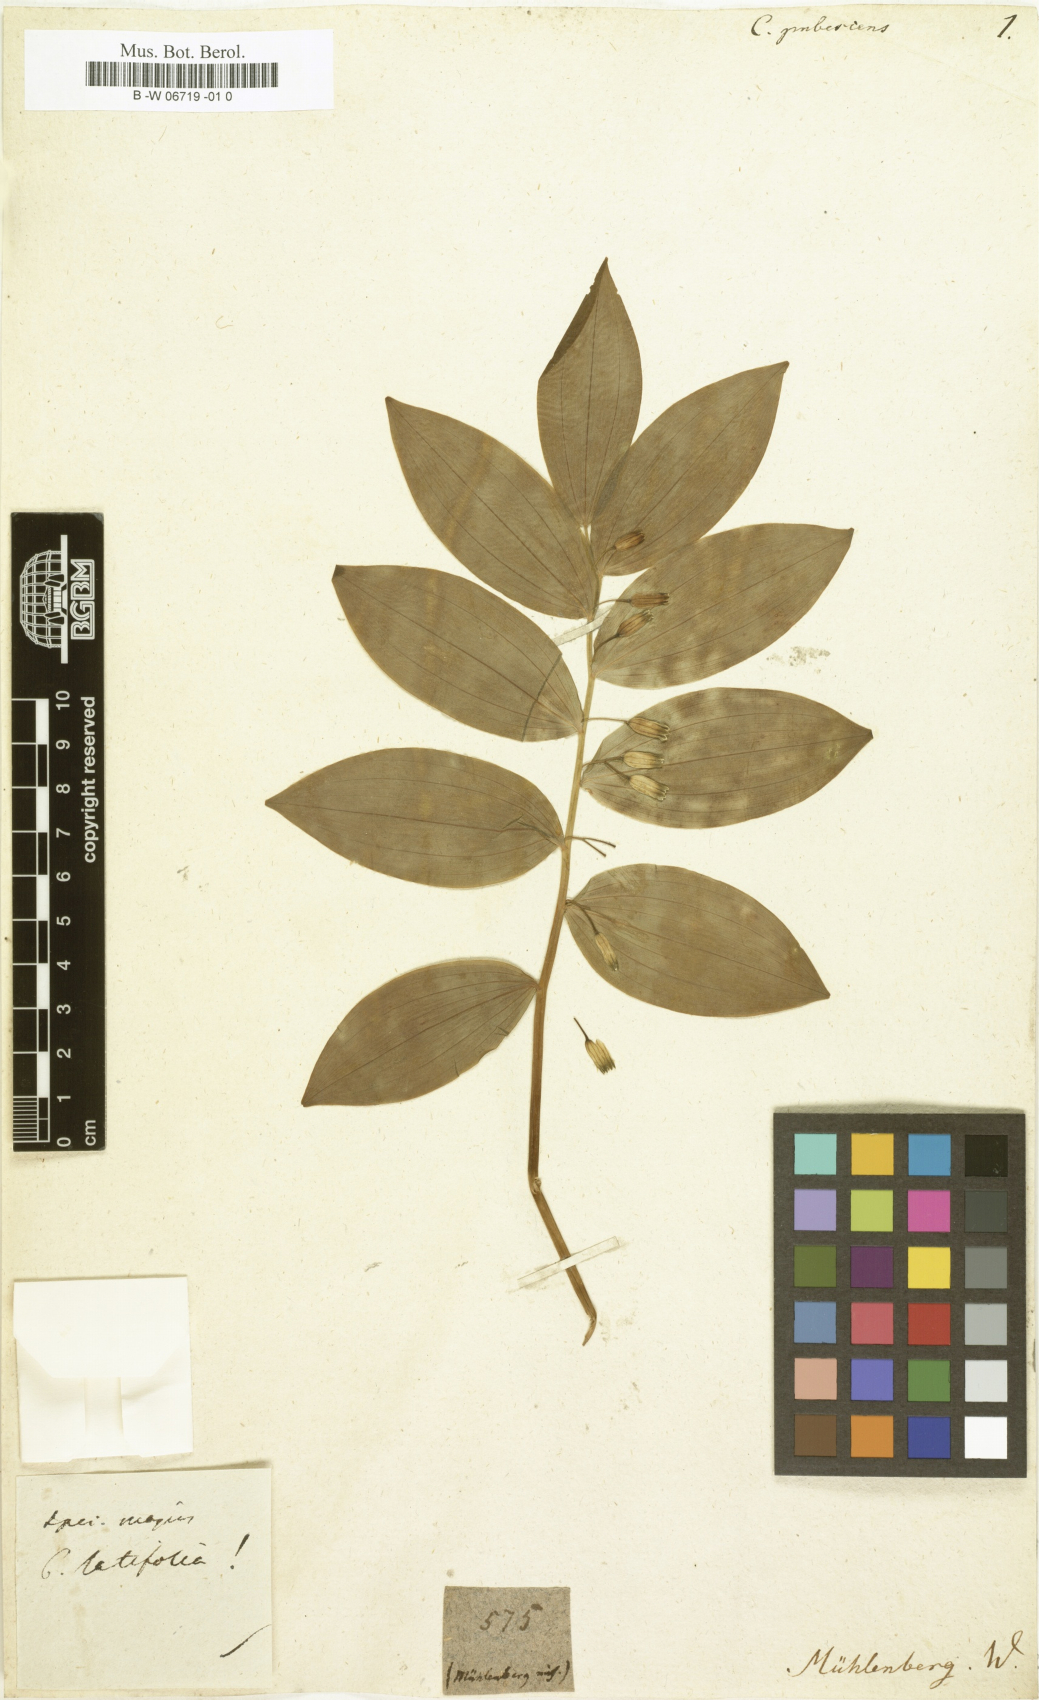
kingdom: Plantae
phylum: Tracheophyta
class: Liliopsida
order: Asparagales
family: Asparagaceae
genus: Polygonatum
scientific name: Polygonatum pubescens
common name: Downy solomon's seal
